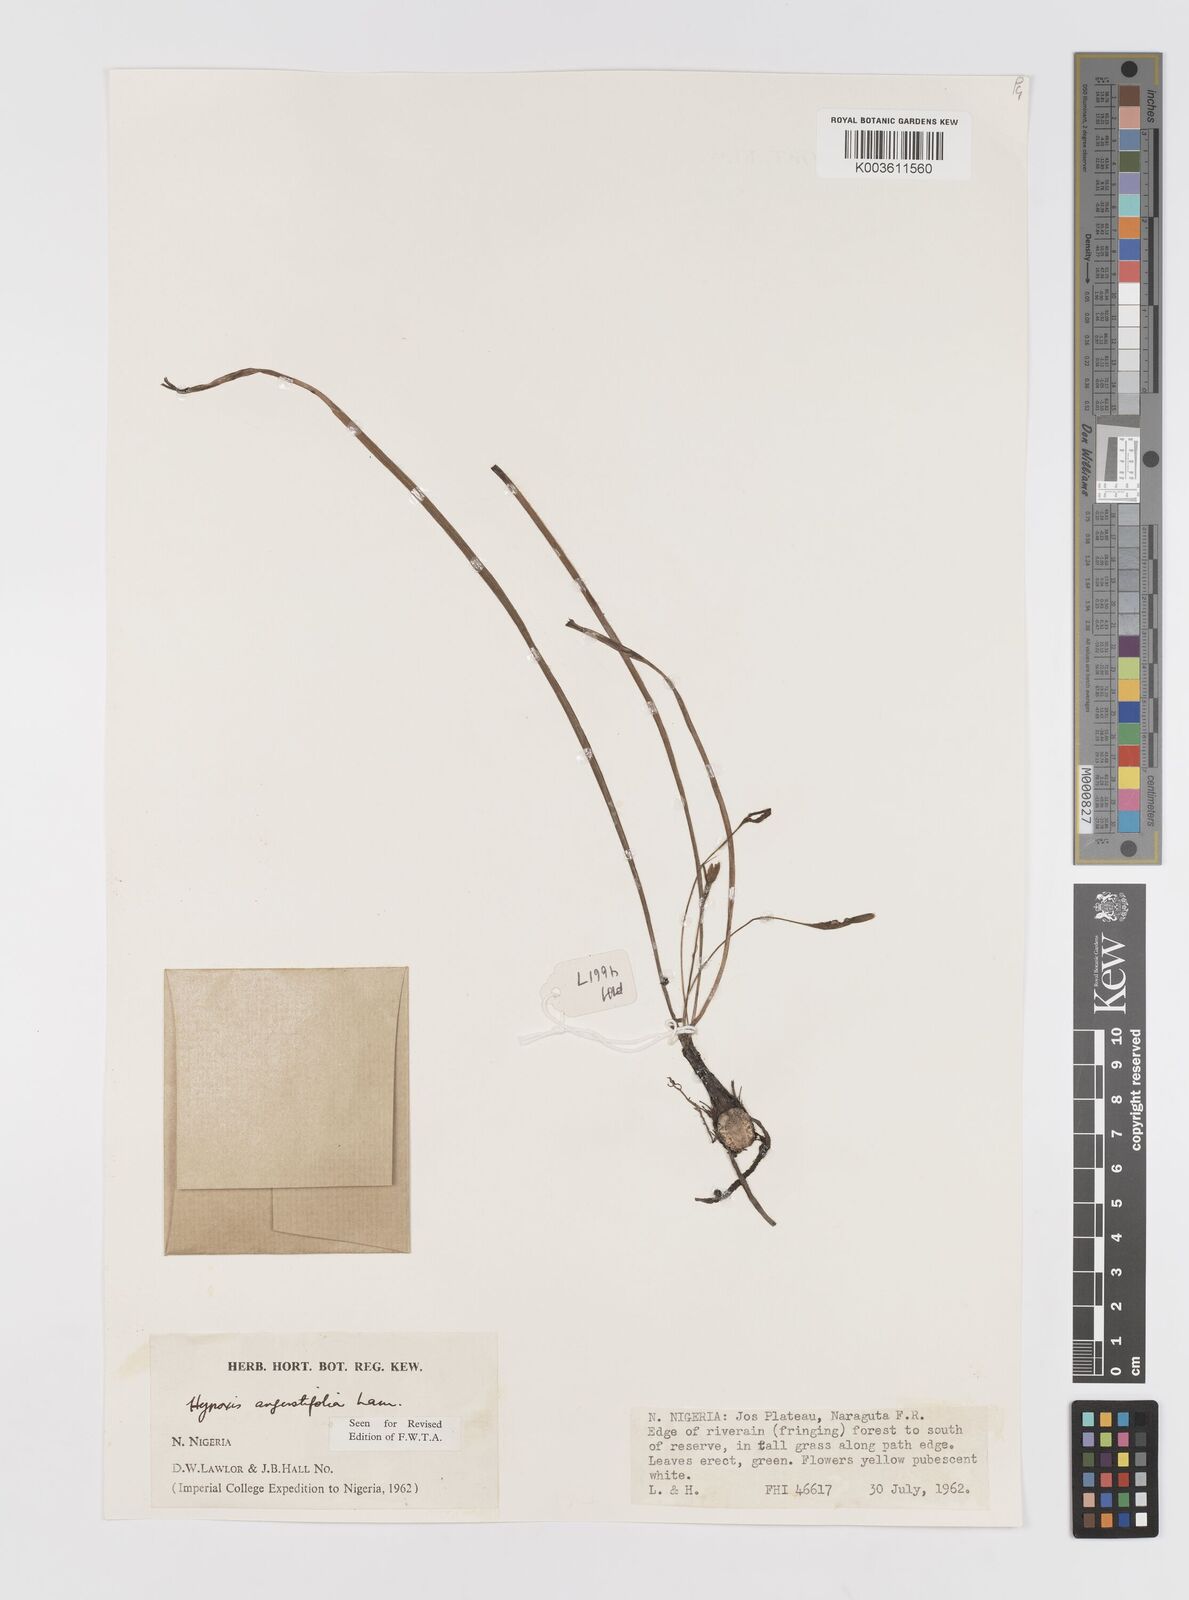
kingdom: Plantae
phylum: Tracheophyta
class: Liliopsida
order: Asparagales
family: Hypoxidaceae
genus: Hypoxis
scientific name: Hypoxis angustifolia
